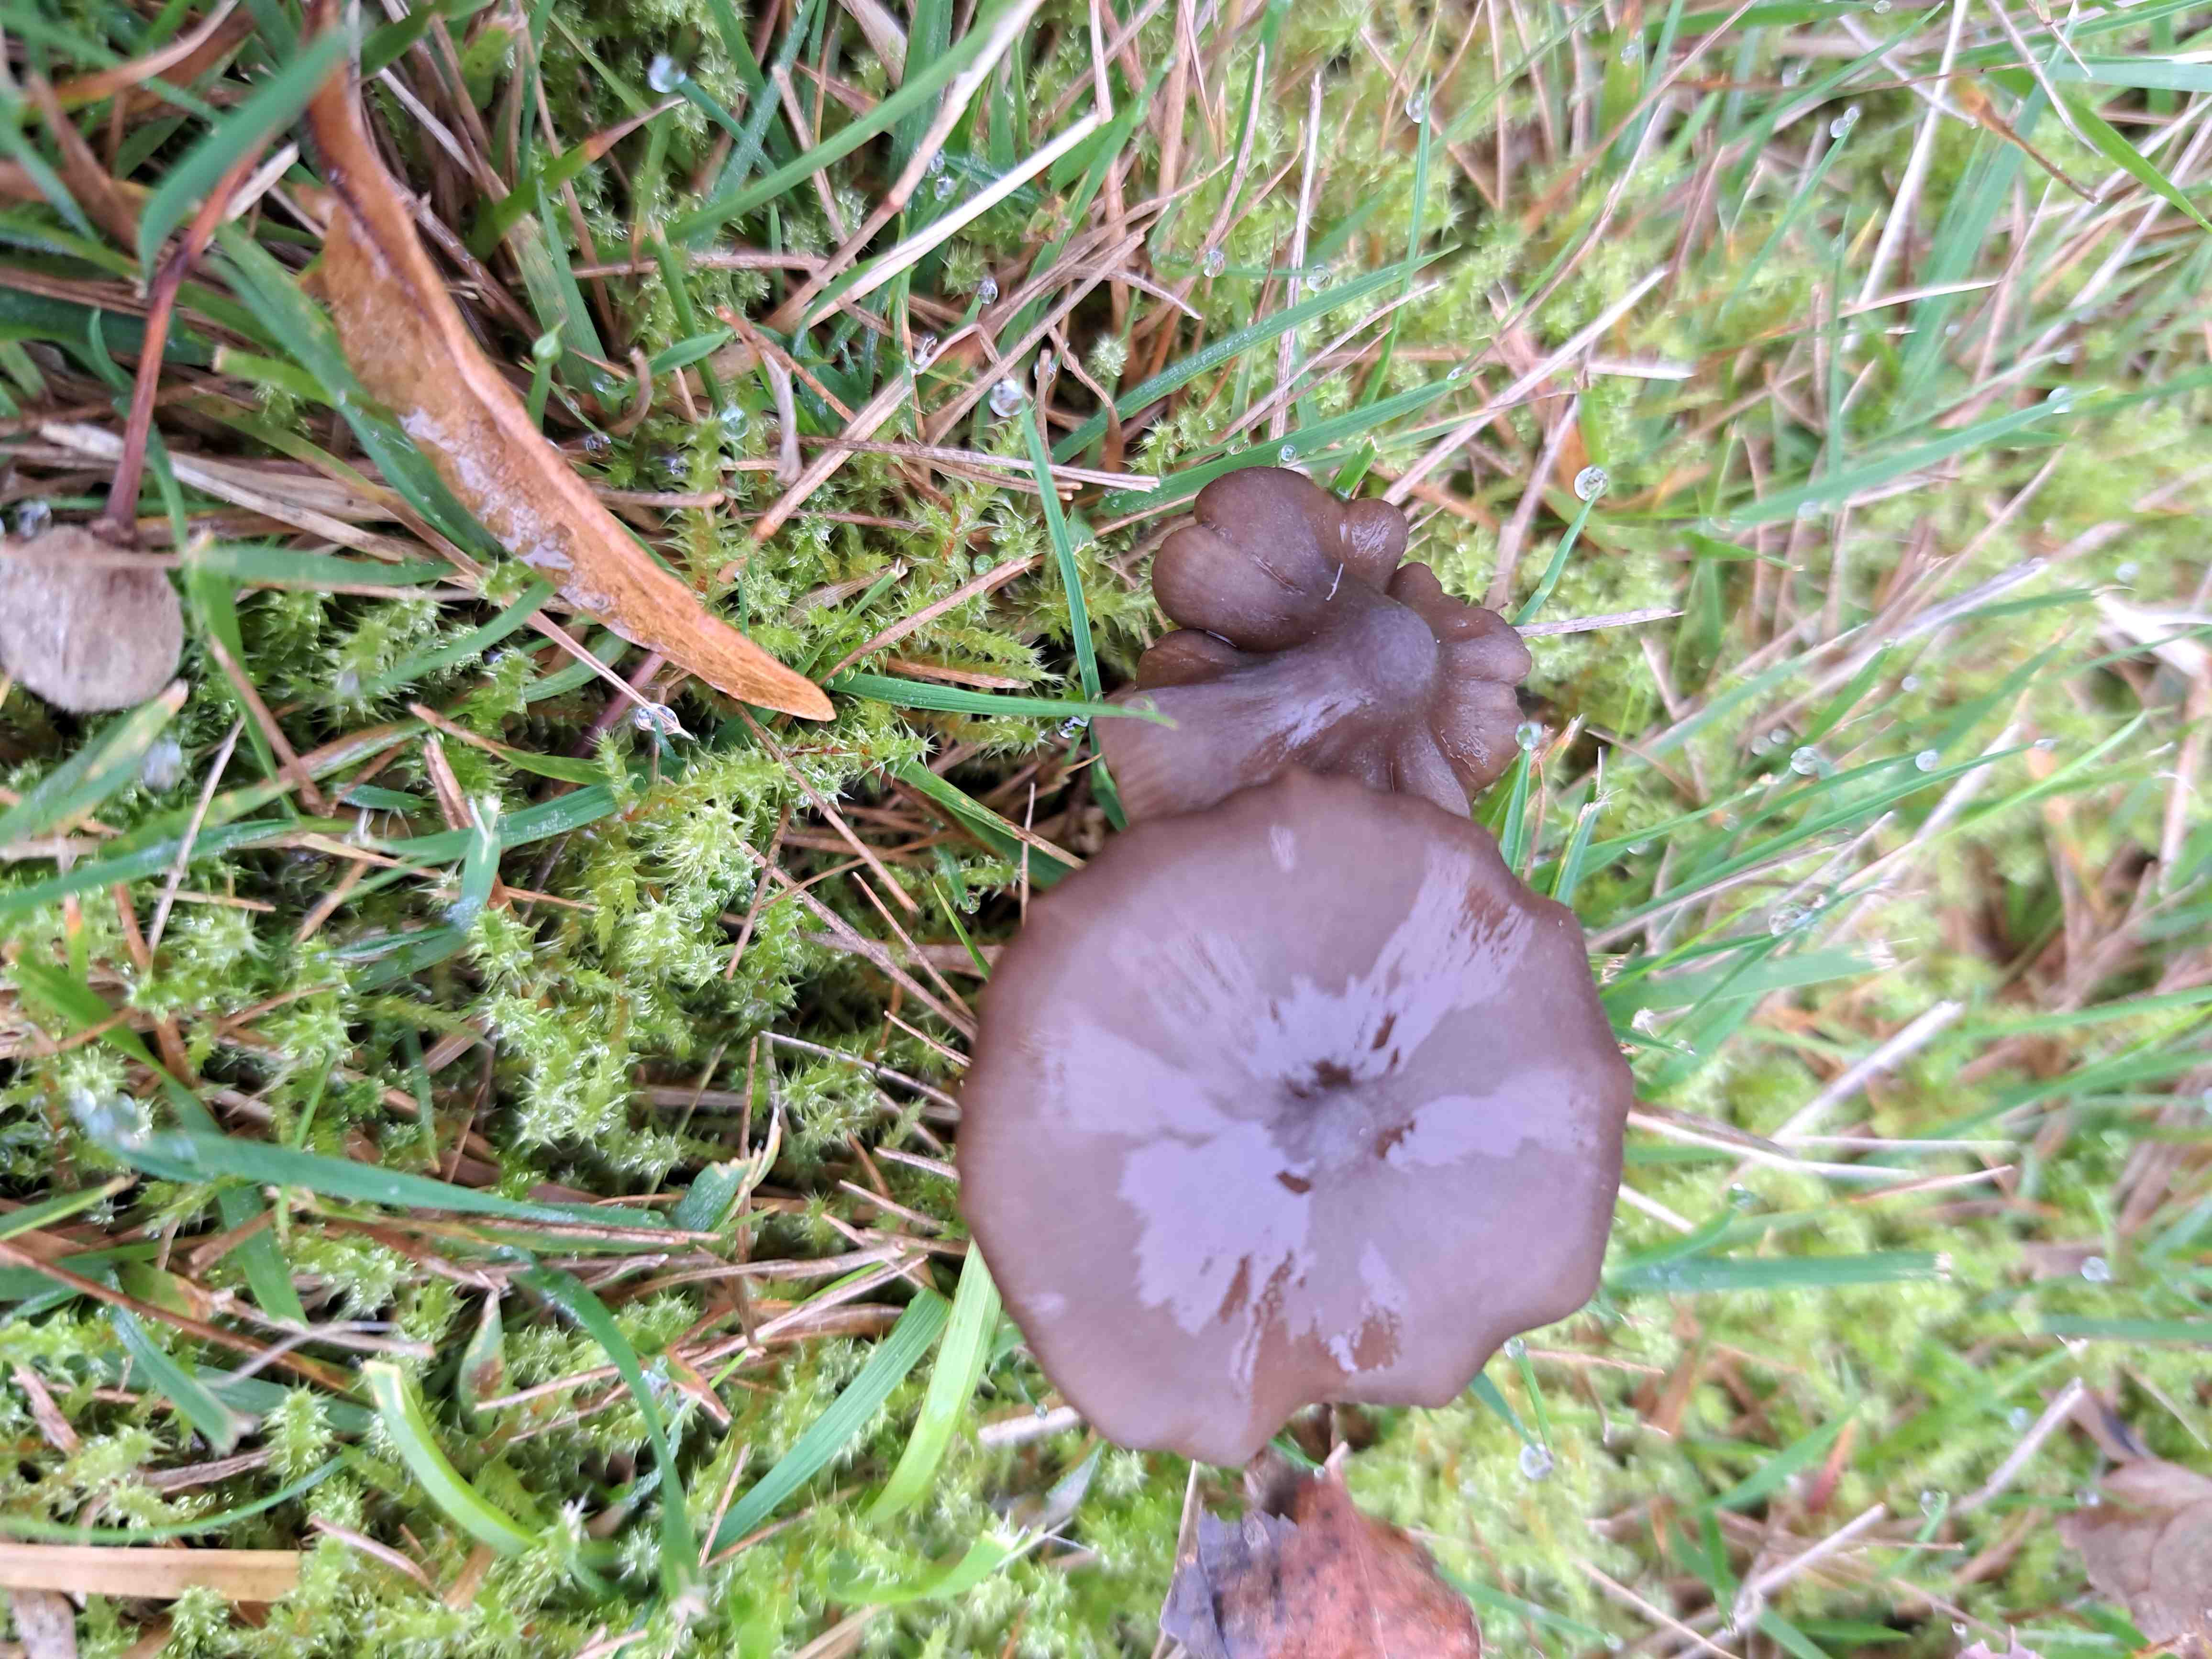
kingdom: Fungi
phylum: Basidiomycota
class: Agaricomycetes
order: Agaricales
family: Entolomataceae
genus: Entoloma
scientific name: Entoloma
